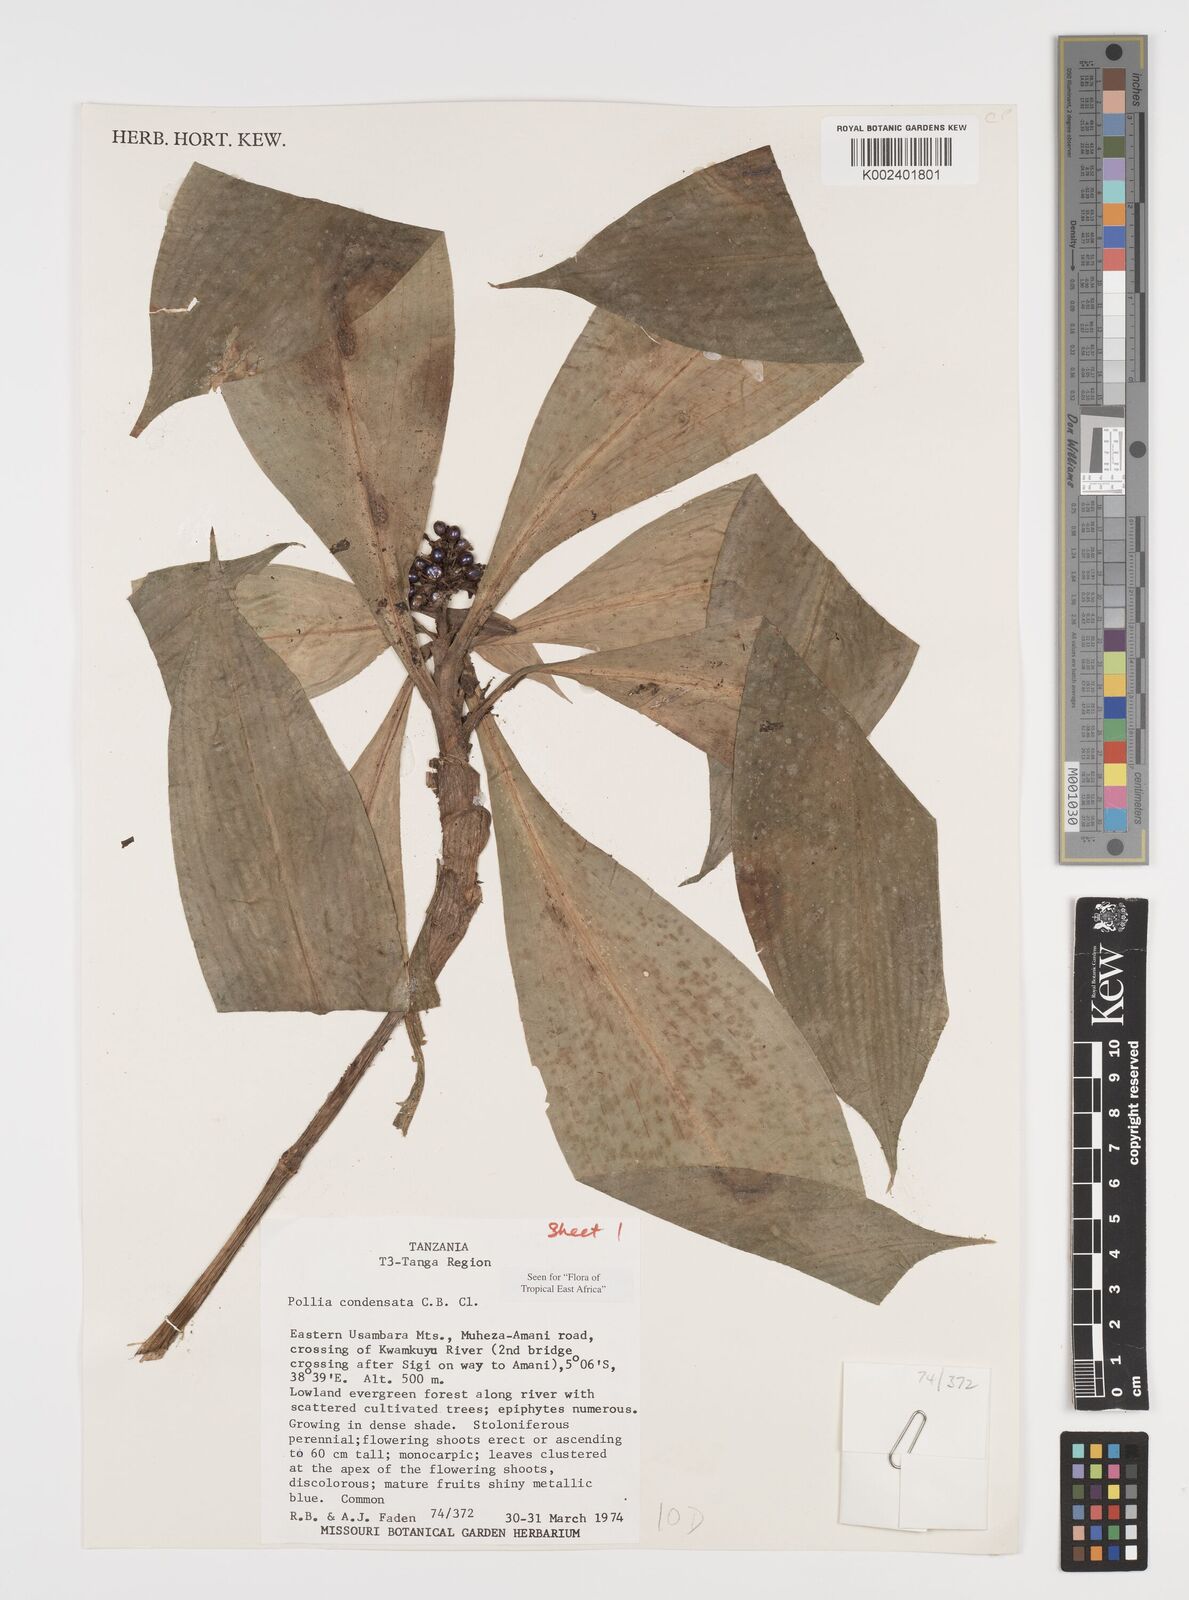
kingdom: Plantae
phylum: Tracheophyta
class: Liliopsida
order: Commelinales
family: Commelinaceae
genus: Pollia
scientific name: Pollia condensata
